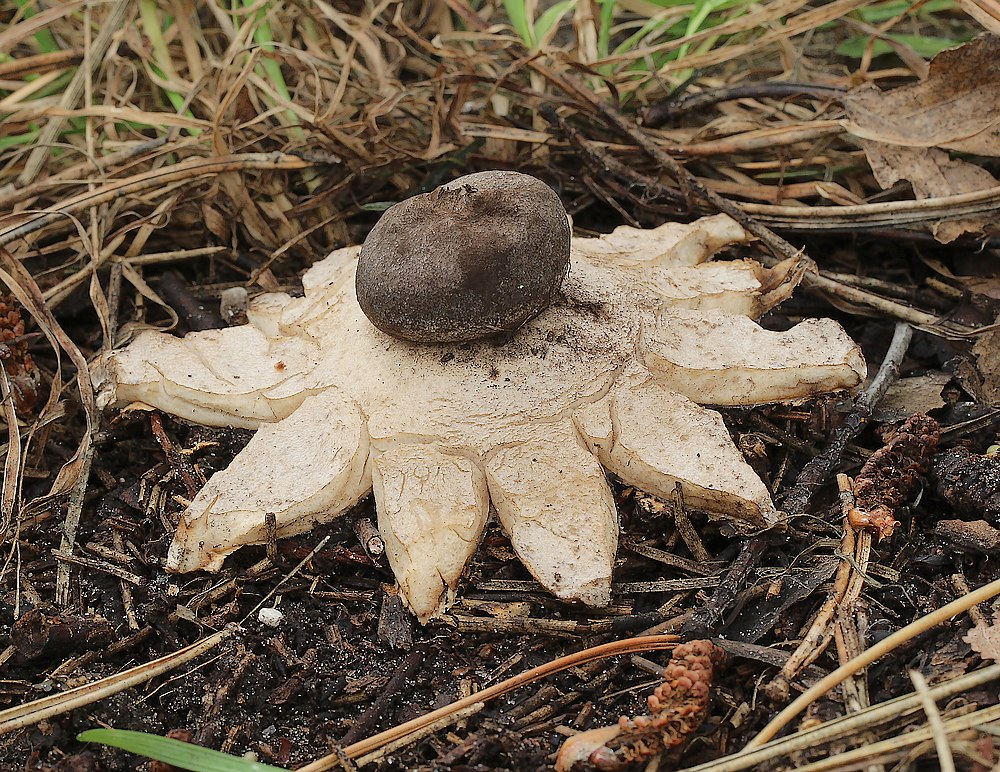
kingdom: Fungi
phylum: Basidiomycota
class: Agaricomycetes
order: Geastrales
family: Geastraceae
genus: Geastrum
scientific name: Geastrum coronatum
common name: mørk stjernebold
